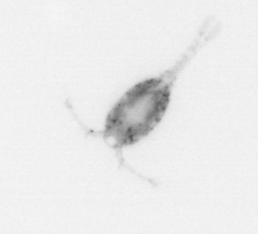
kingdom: Animalia
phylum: Arthropoda
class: Copepoda
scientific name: Copepoda
